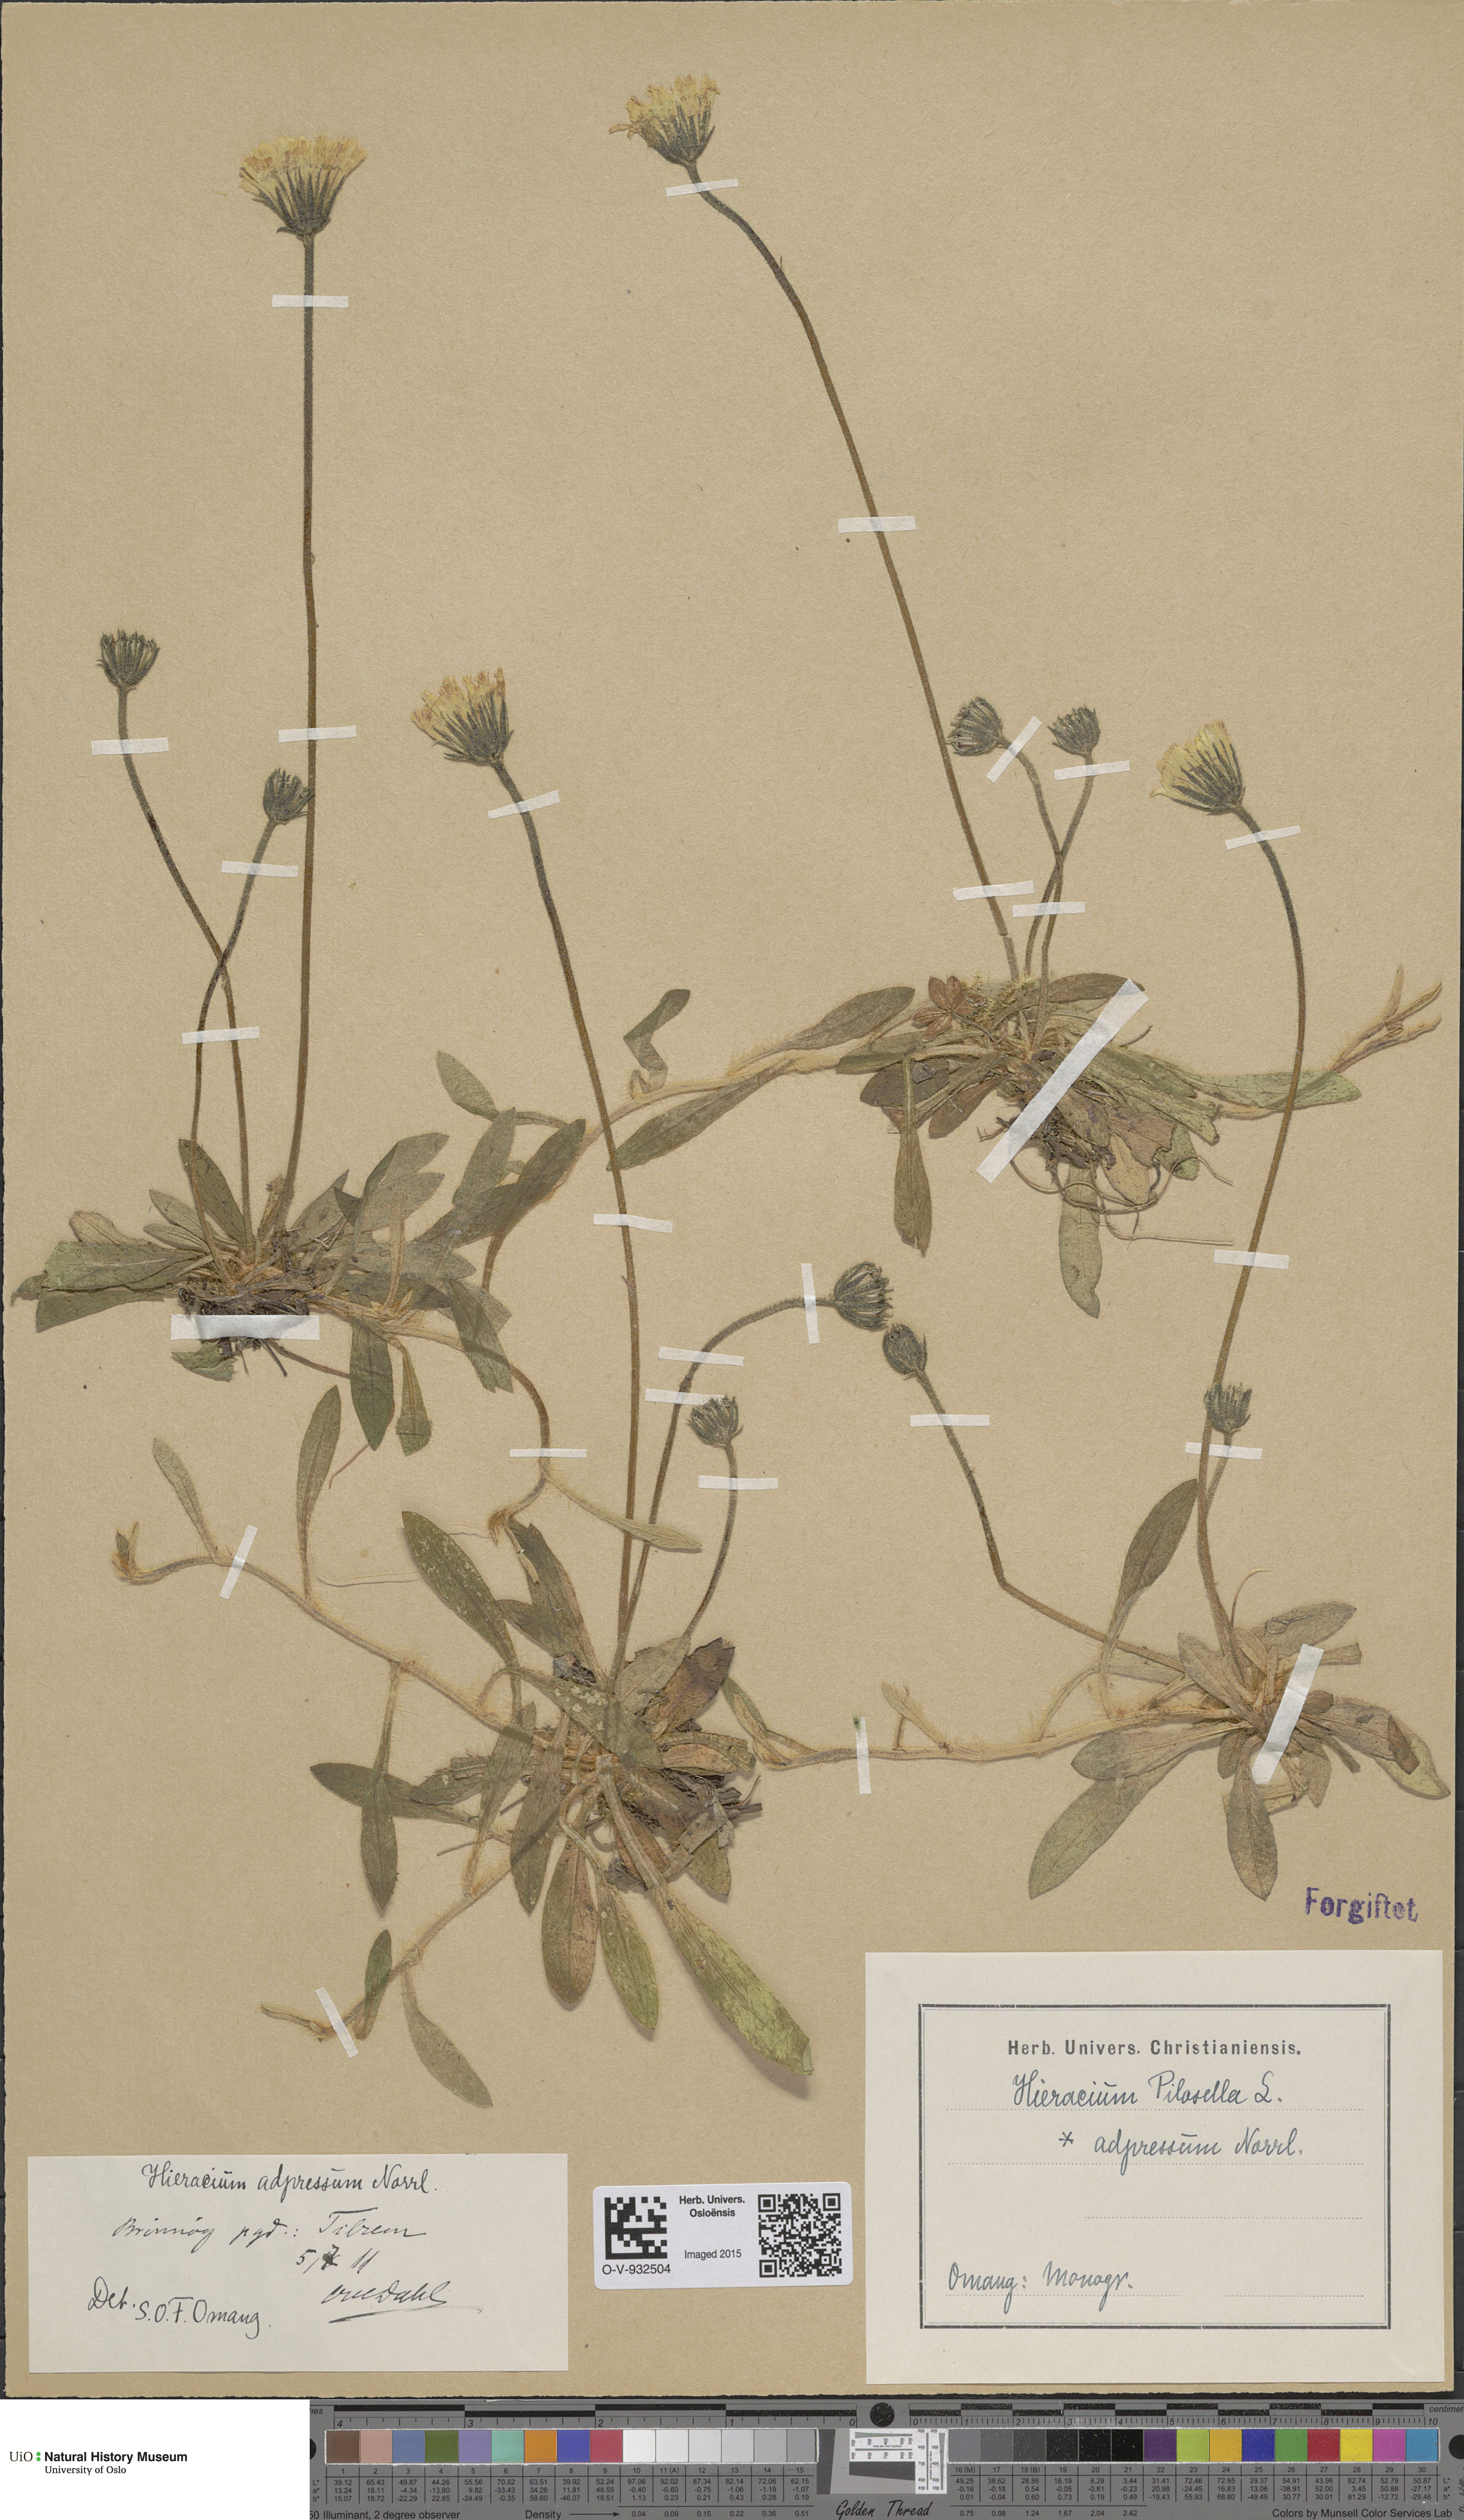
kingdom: Plantae
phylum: Tracheophyta
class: Magnoliopsida
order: Asterales
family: Asteraceae
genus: Hieracium
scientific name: Hieracium adpressum
